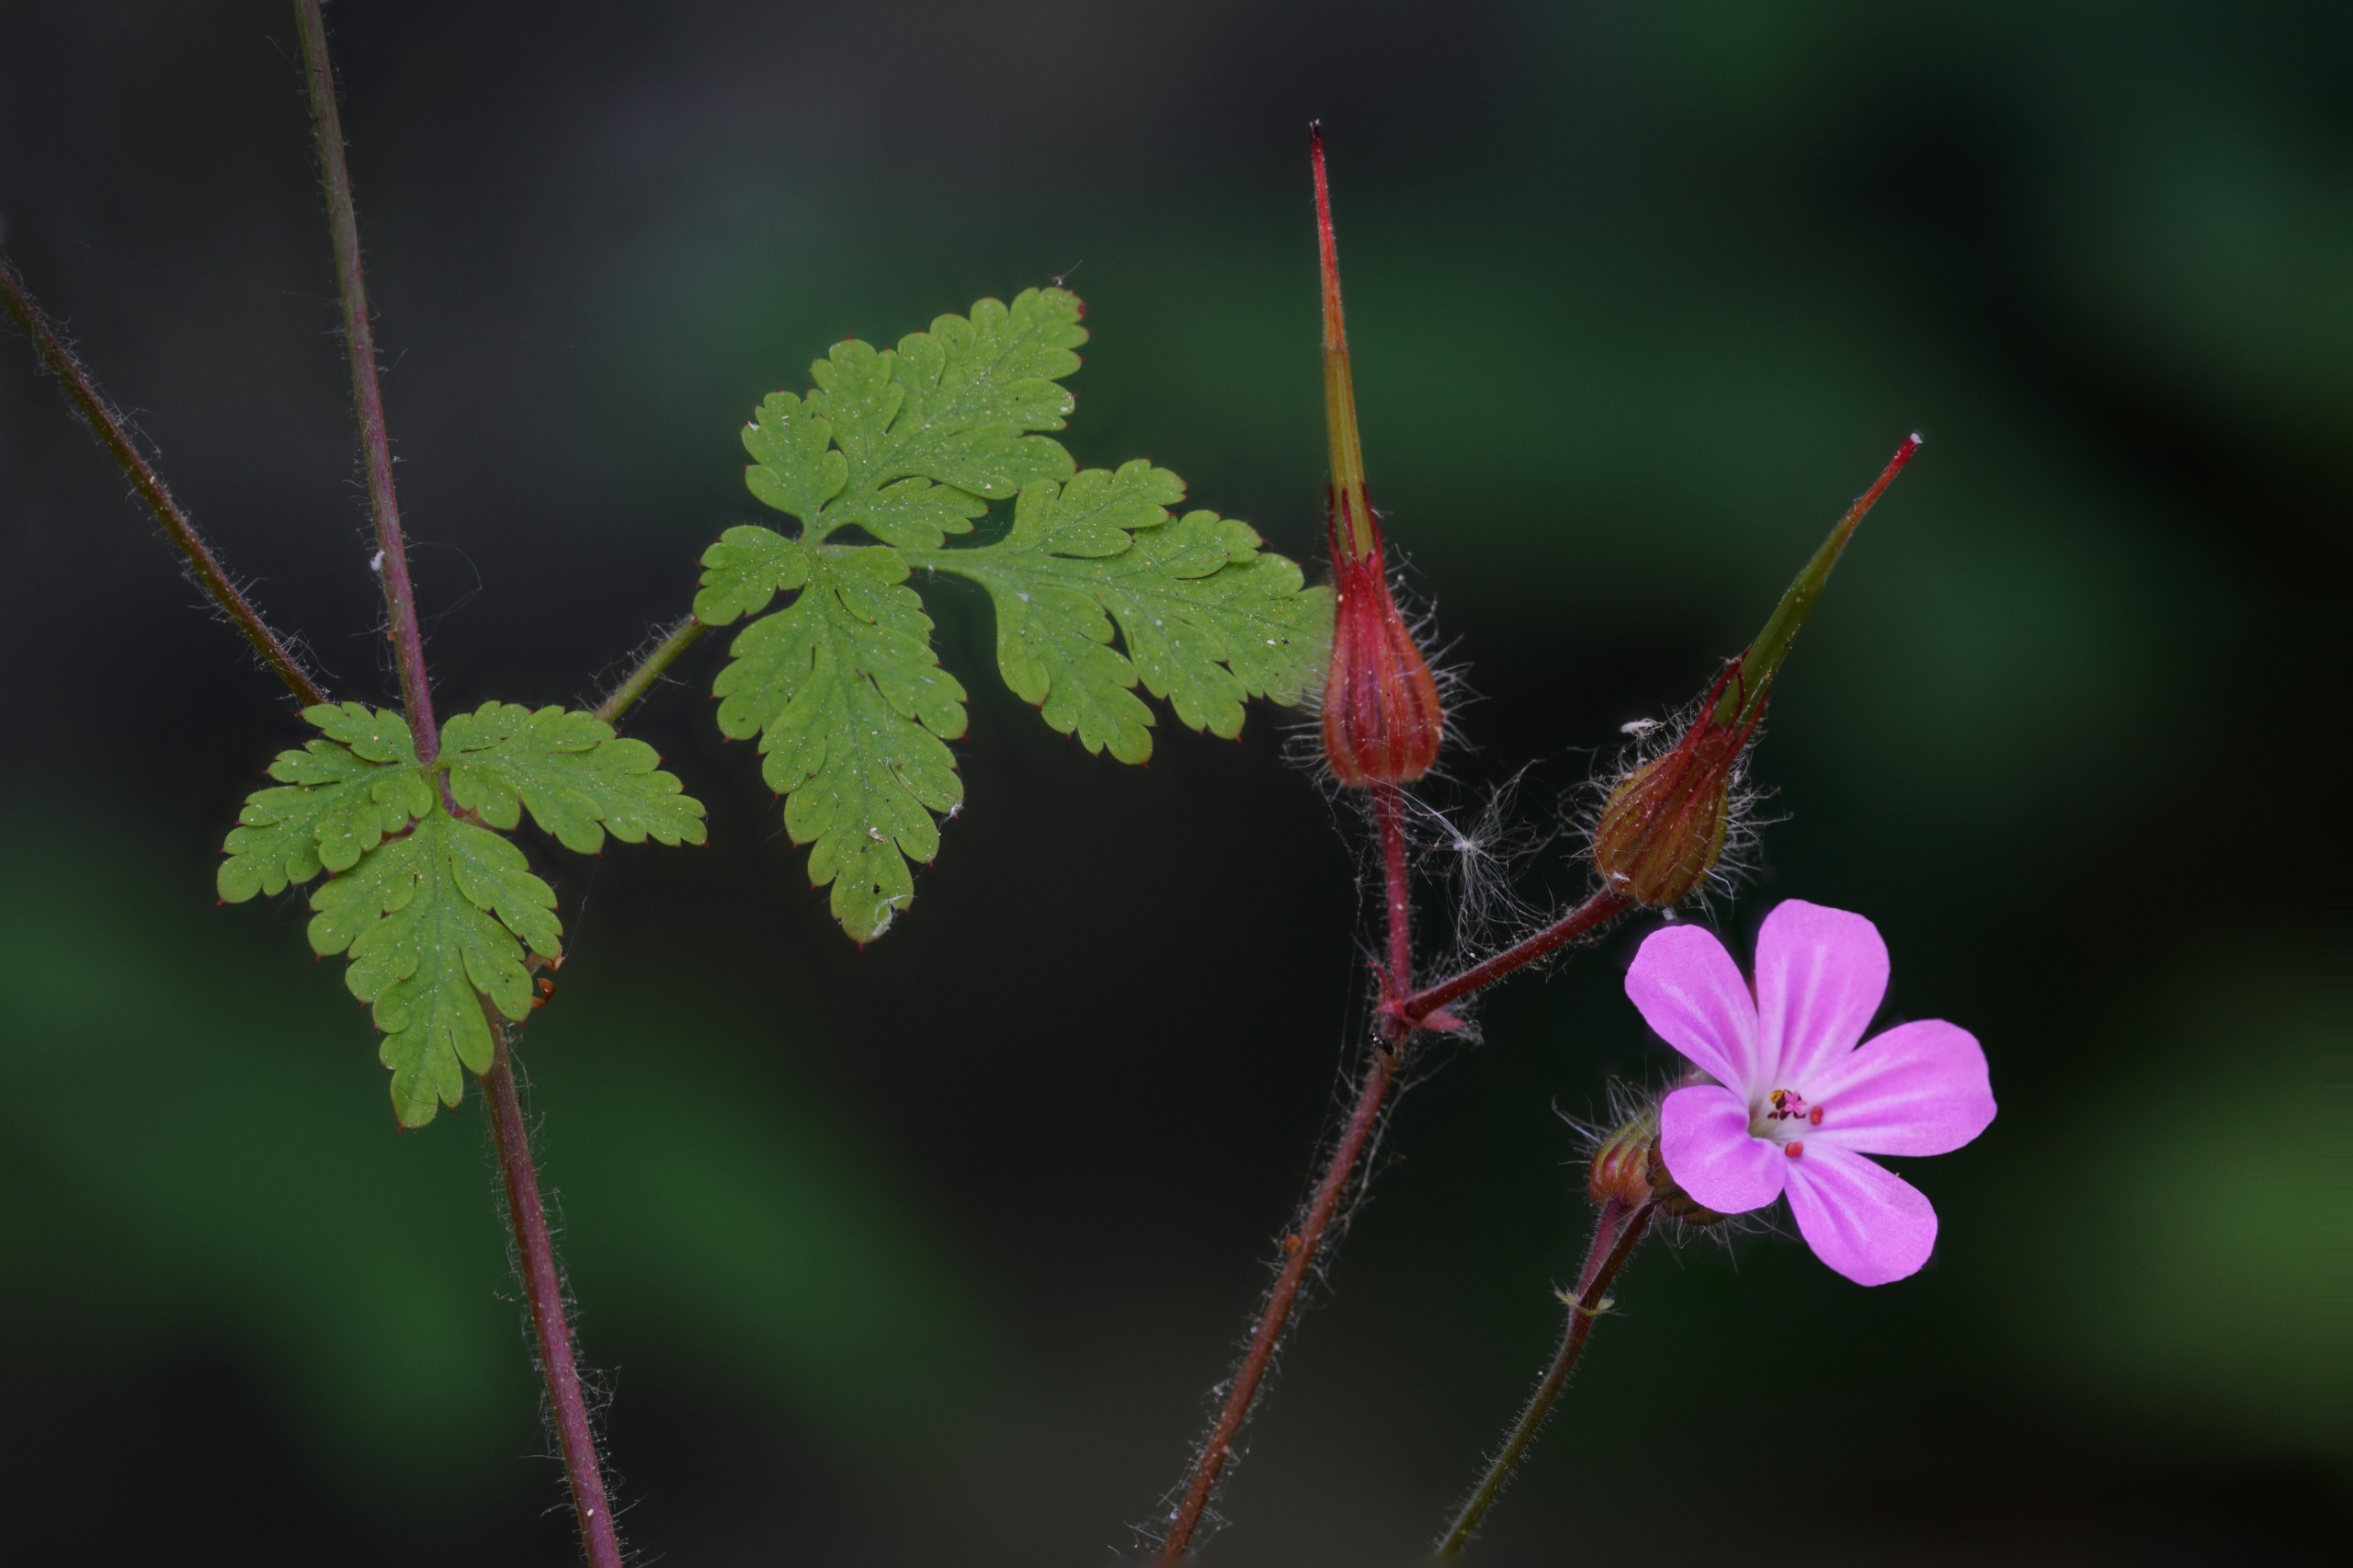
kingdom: Plantae
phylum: Tracheophyta
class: Magnoliopsida
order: Geraniales
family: Geraniaceae
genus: Geranium
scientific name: Geranium robertianum
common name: Stinkende storkenæb
